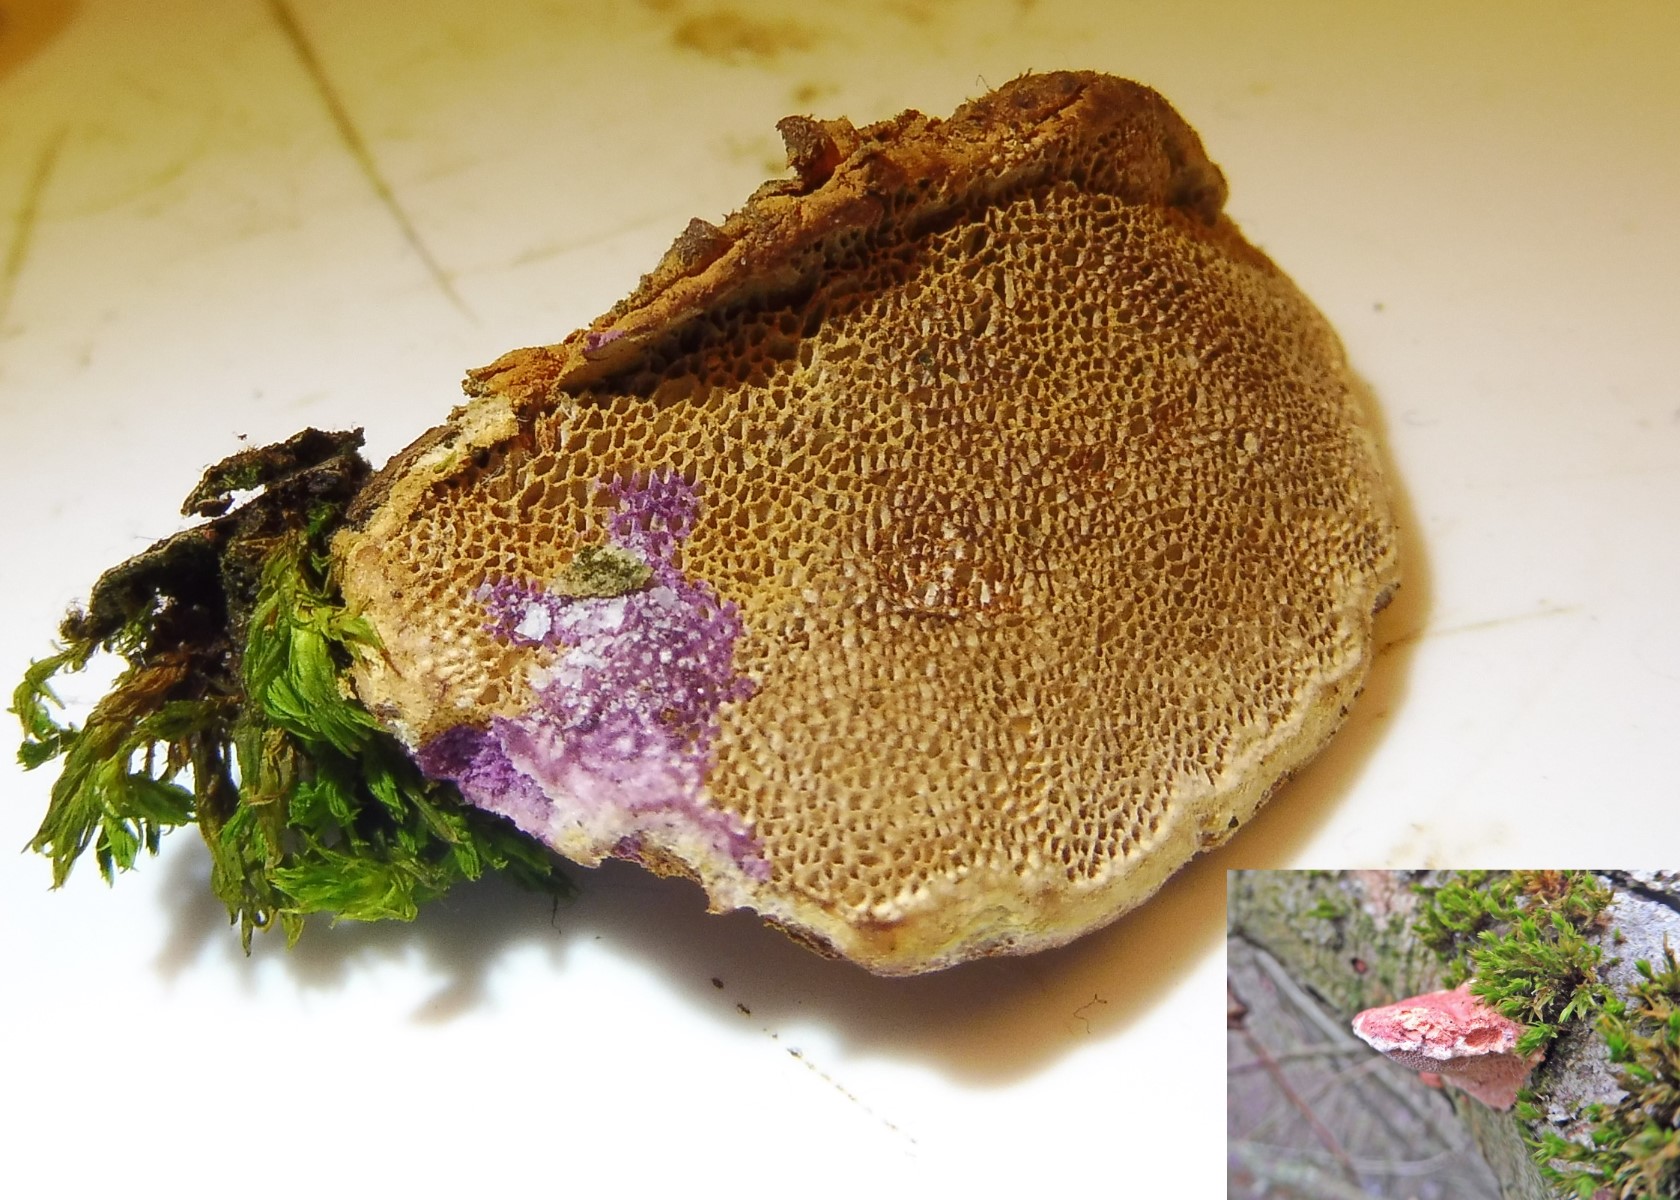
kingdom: Fungi
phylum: Basidiomycota
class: Agaricomycetes
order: Polyporales
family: Phanerochaetaceae
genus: Hapalopilus
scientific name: Hapalopilus rutilans
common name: rødlig okkerporesvamp
